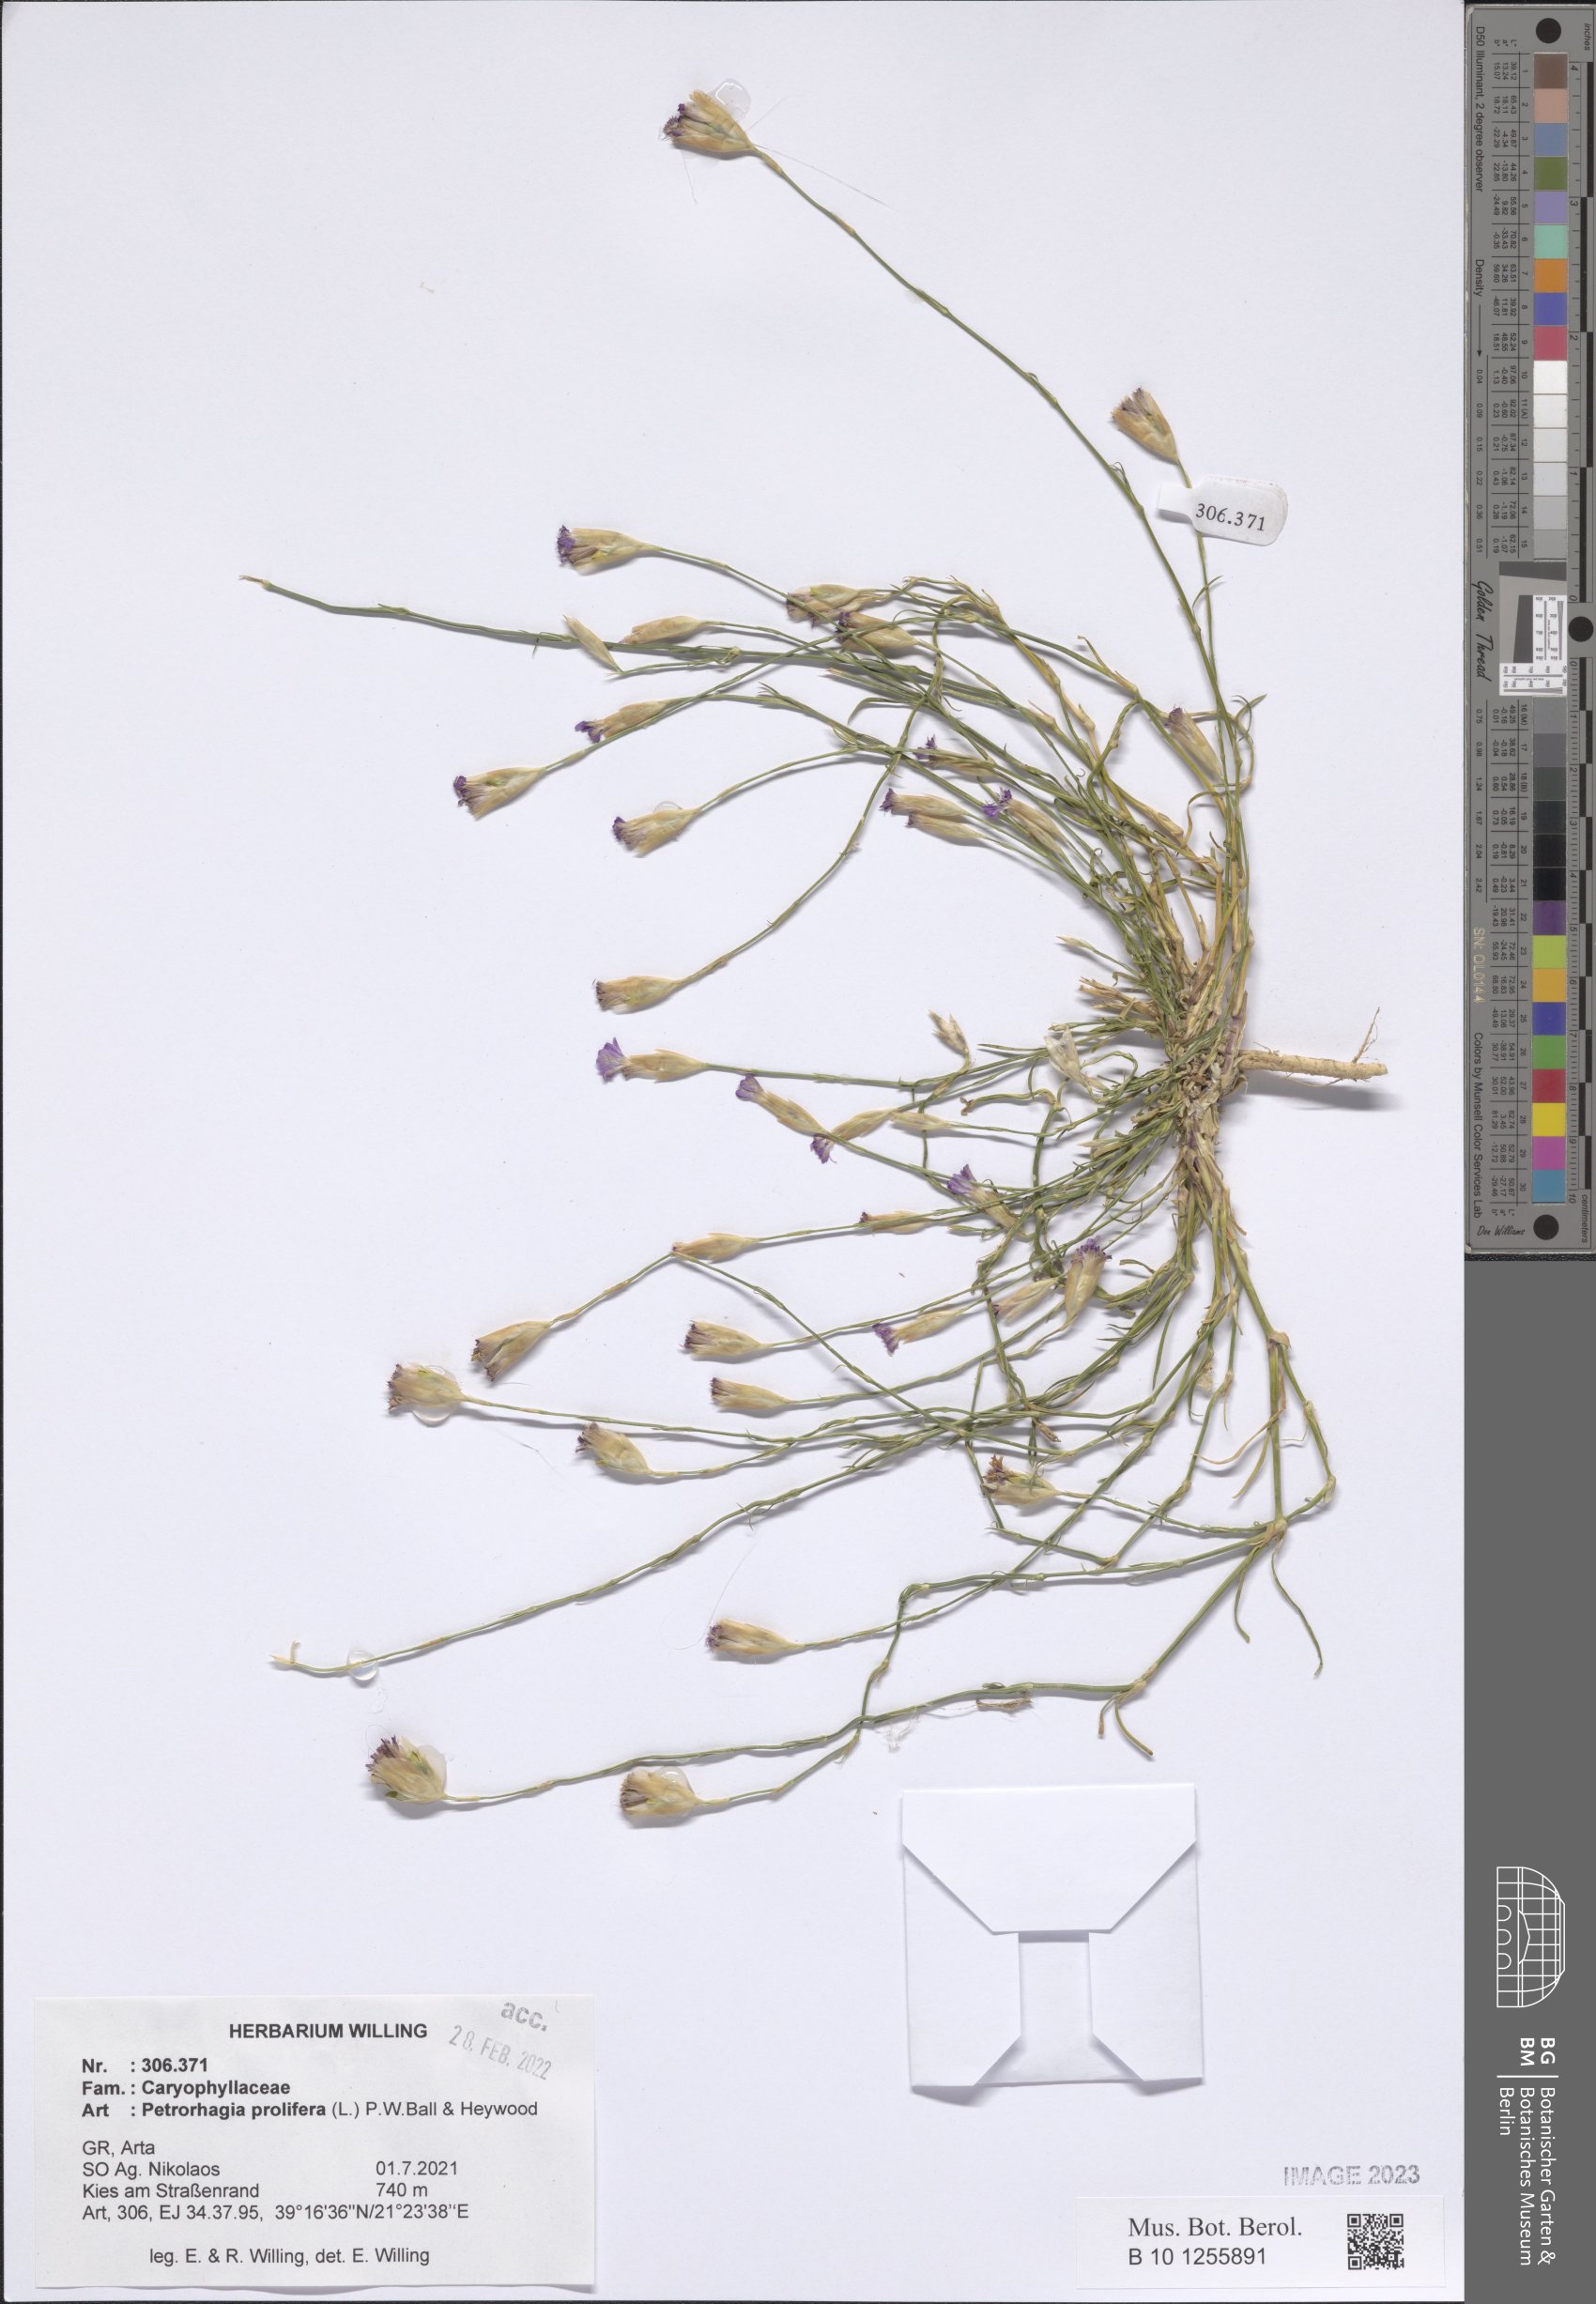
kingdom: Plantae
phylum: Tracheophyta
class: Magnoliopsida
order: Caryophyllales
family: Caryophyllaceae
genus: Petrorhagia
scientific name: Petrorhagia prolifera
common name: Proliferous pink
